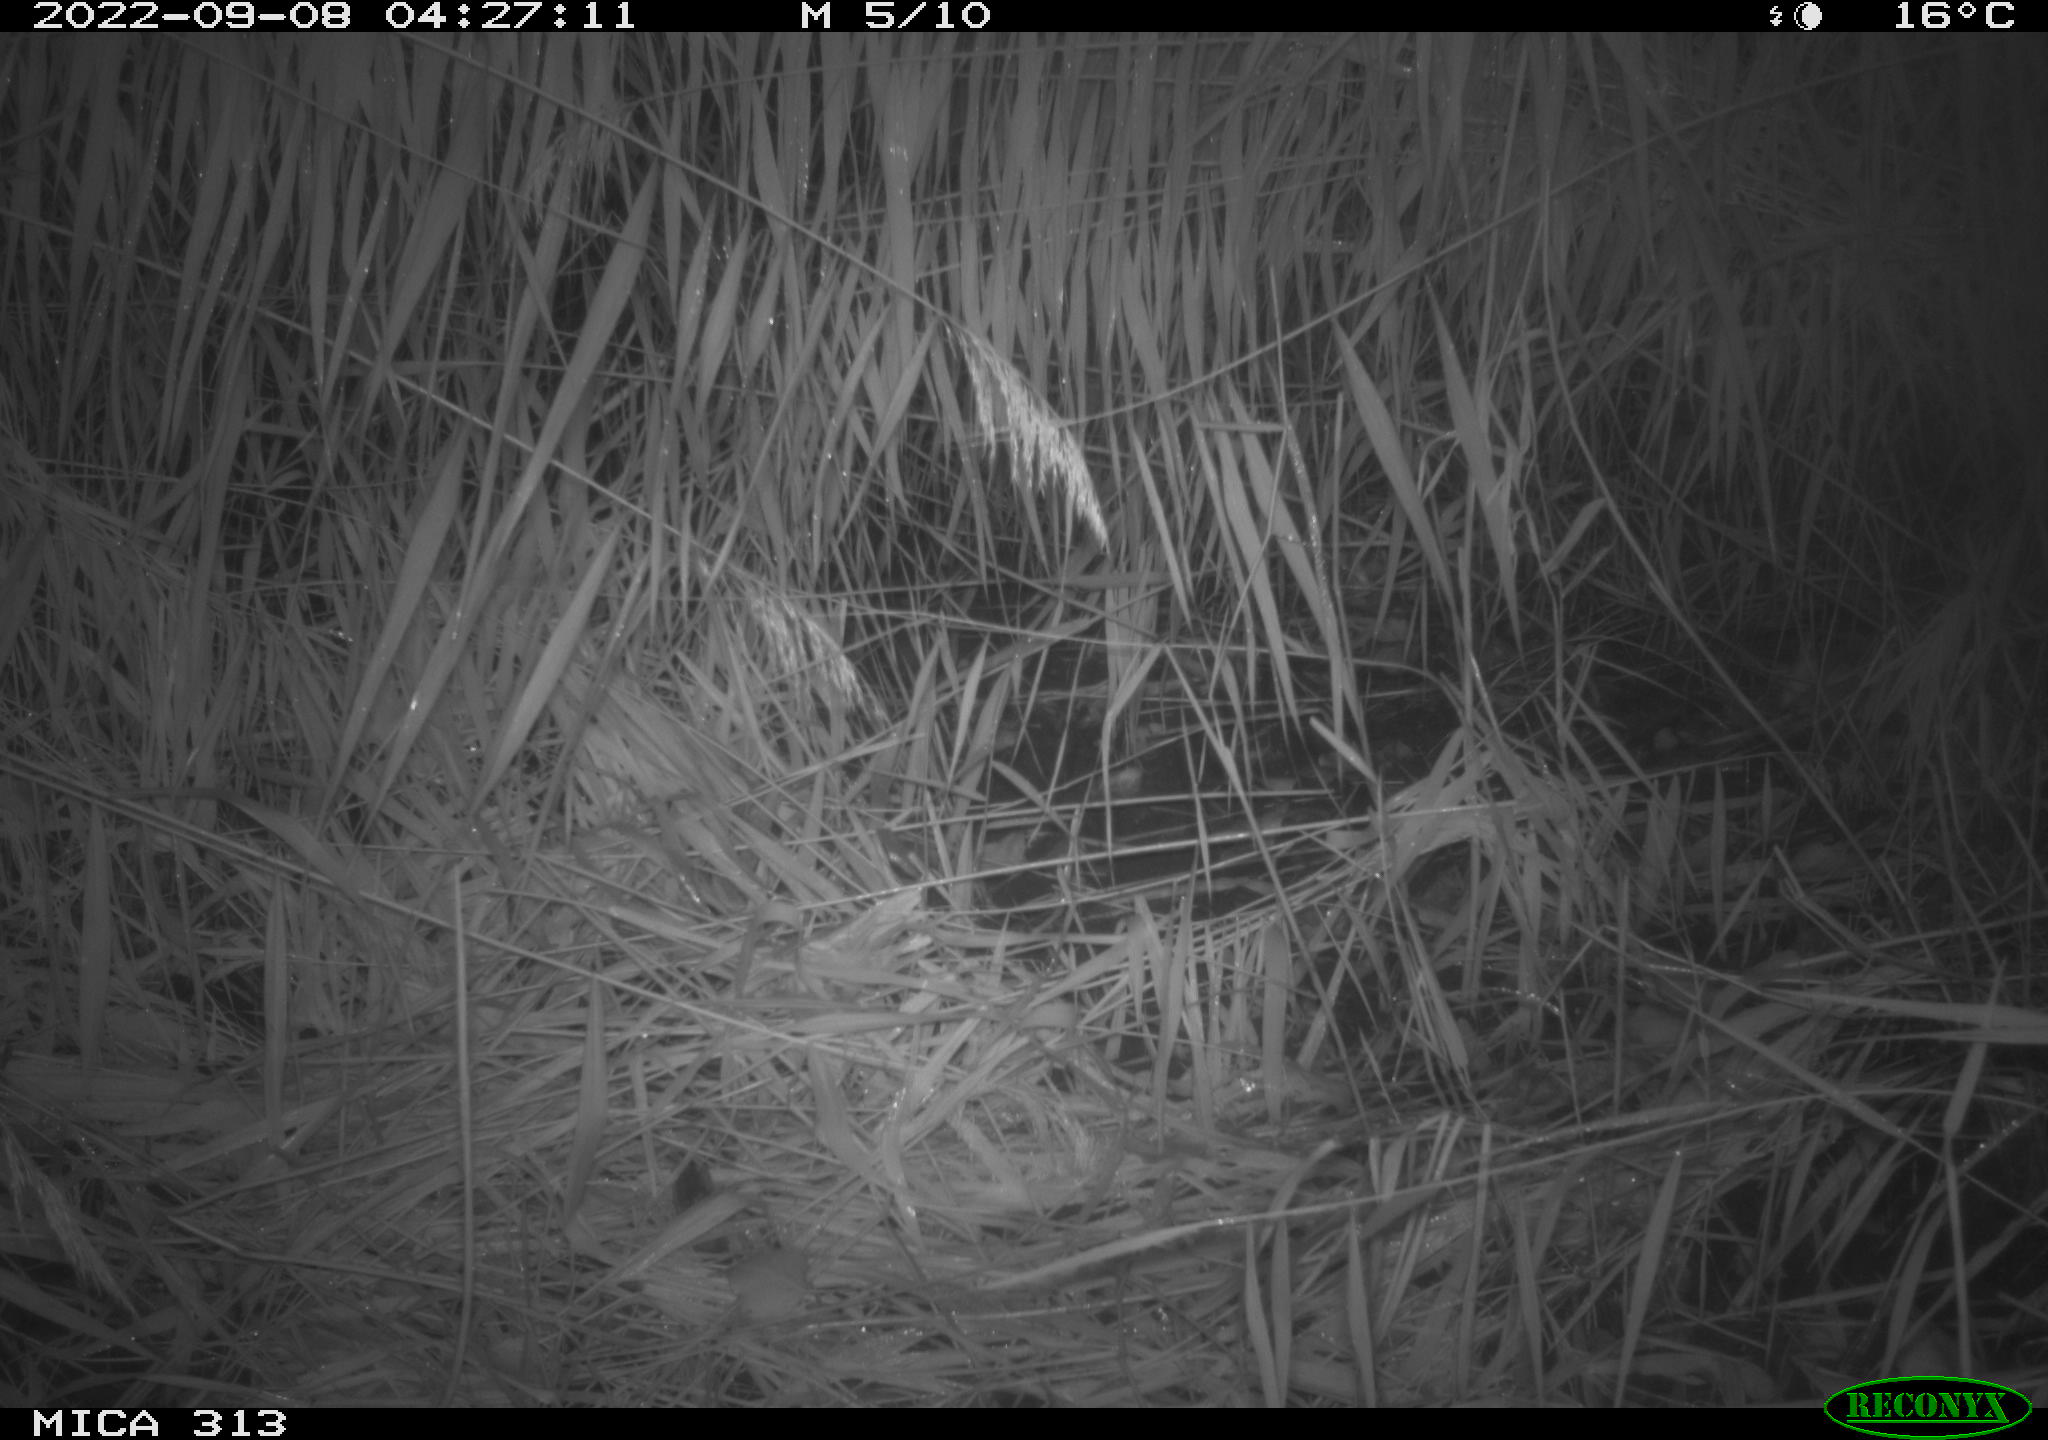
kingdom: Animalia
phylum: Chordata
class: Mammalia
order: Rodentia
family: Muridae
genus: Rattus
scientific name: Rattus norvegicus
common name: Brown rat
